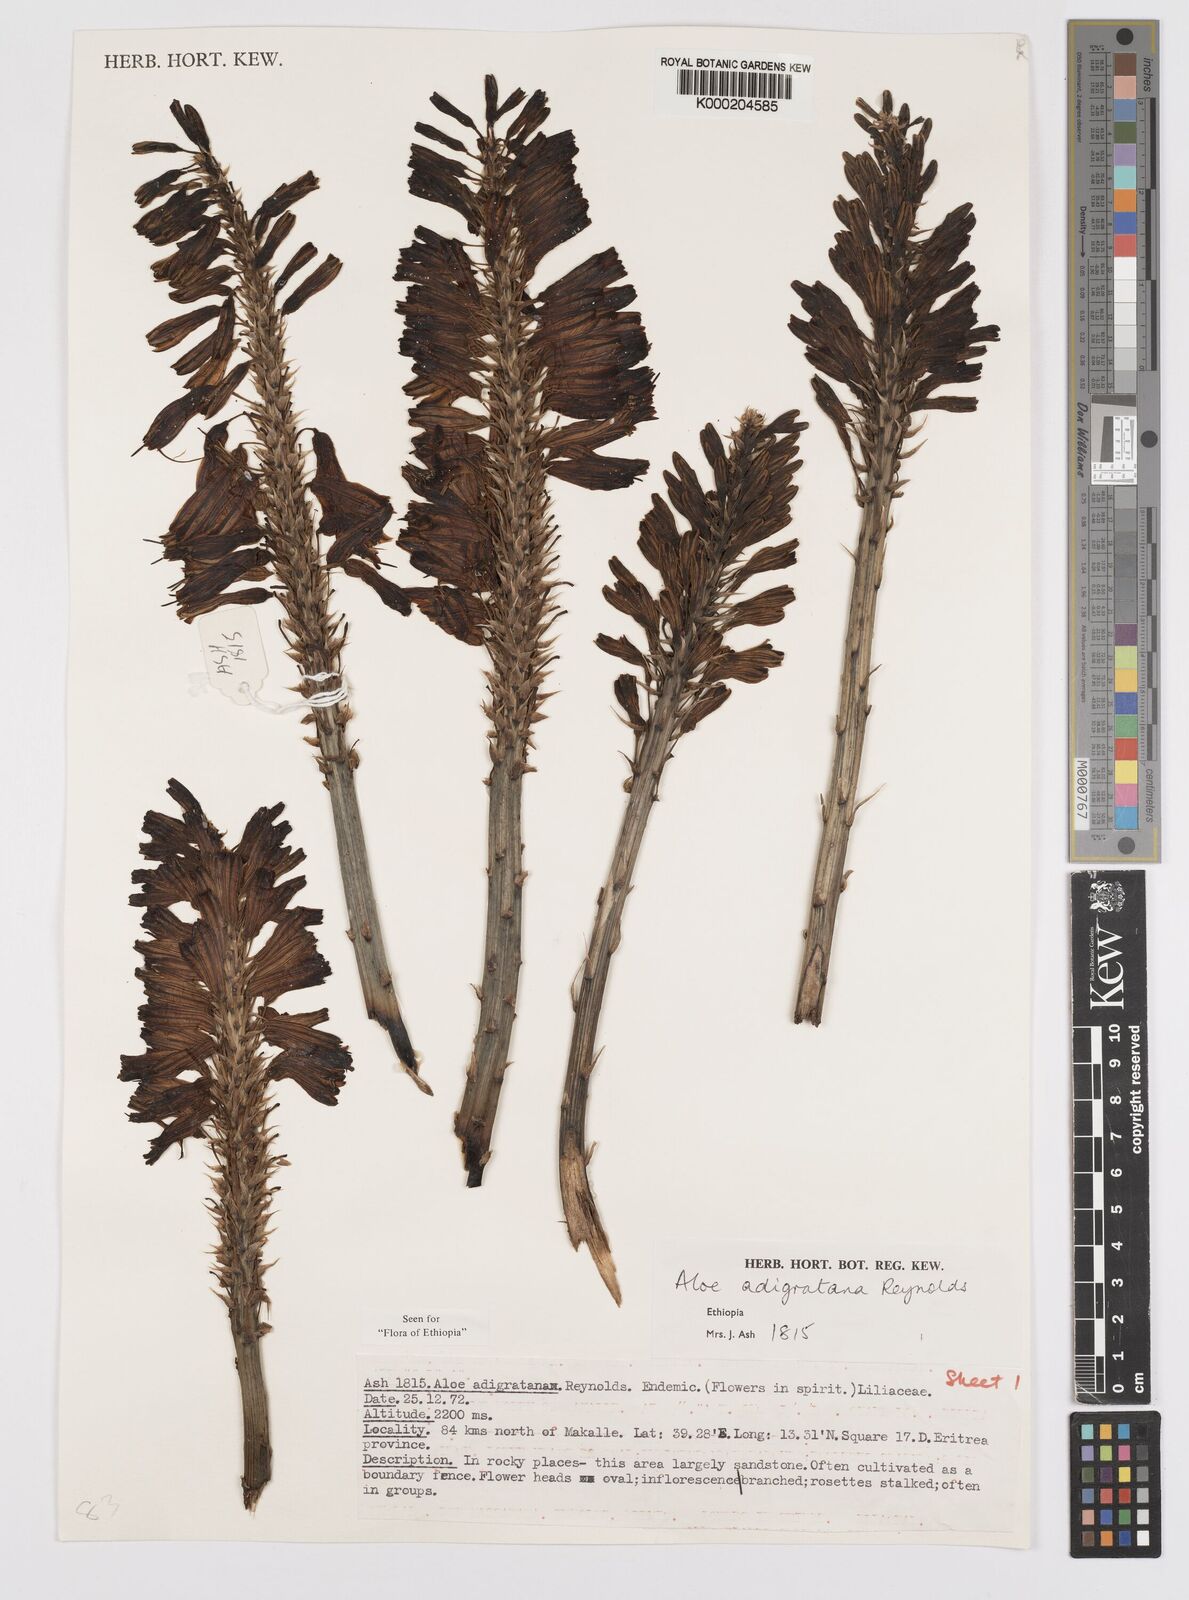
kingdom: Plantae
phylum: Tracheophyta
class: Liliopsida
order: Asparagales
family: Asphodelaceae
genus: Aloe
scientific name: Aloe adigratana
